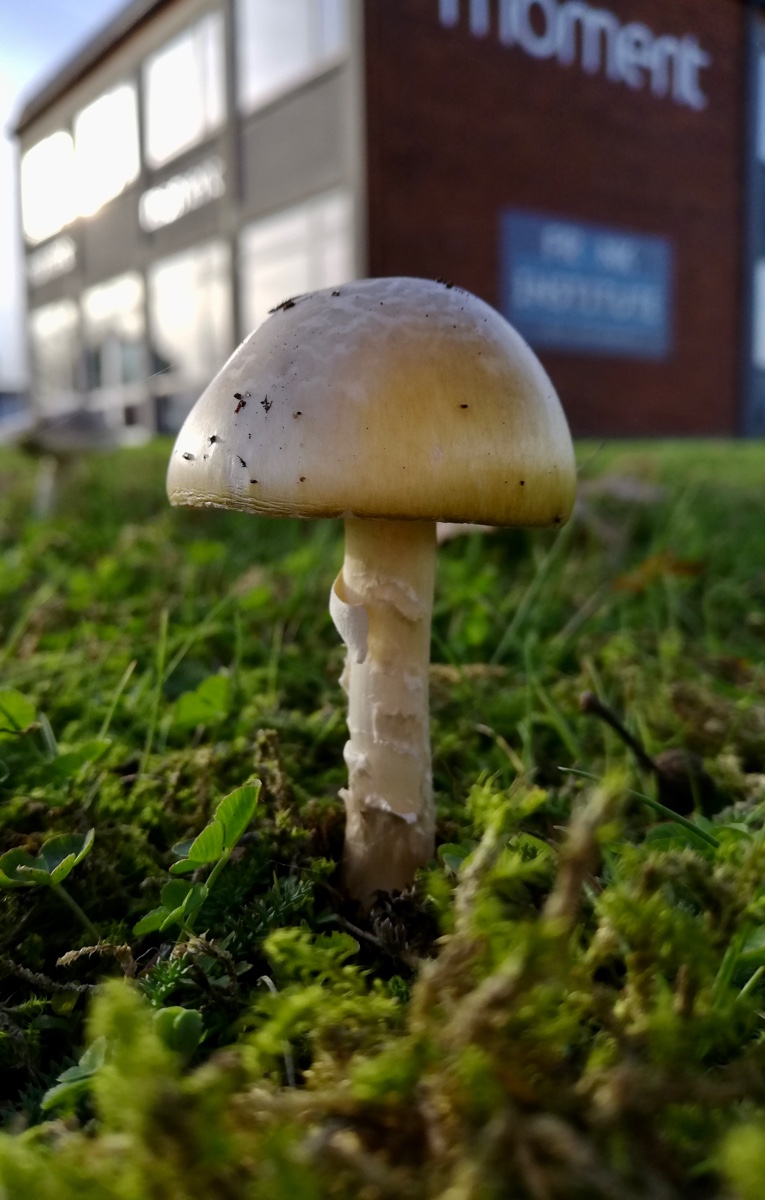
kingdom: Fungi
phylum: Basidiomycota
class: Agaricomycetes
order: Agaricales
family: Amanitaceae
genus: Amanita
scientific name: Amanita phalloides
